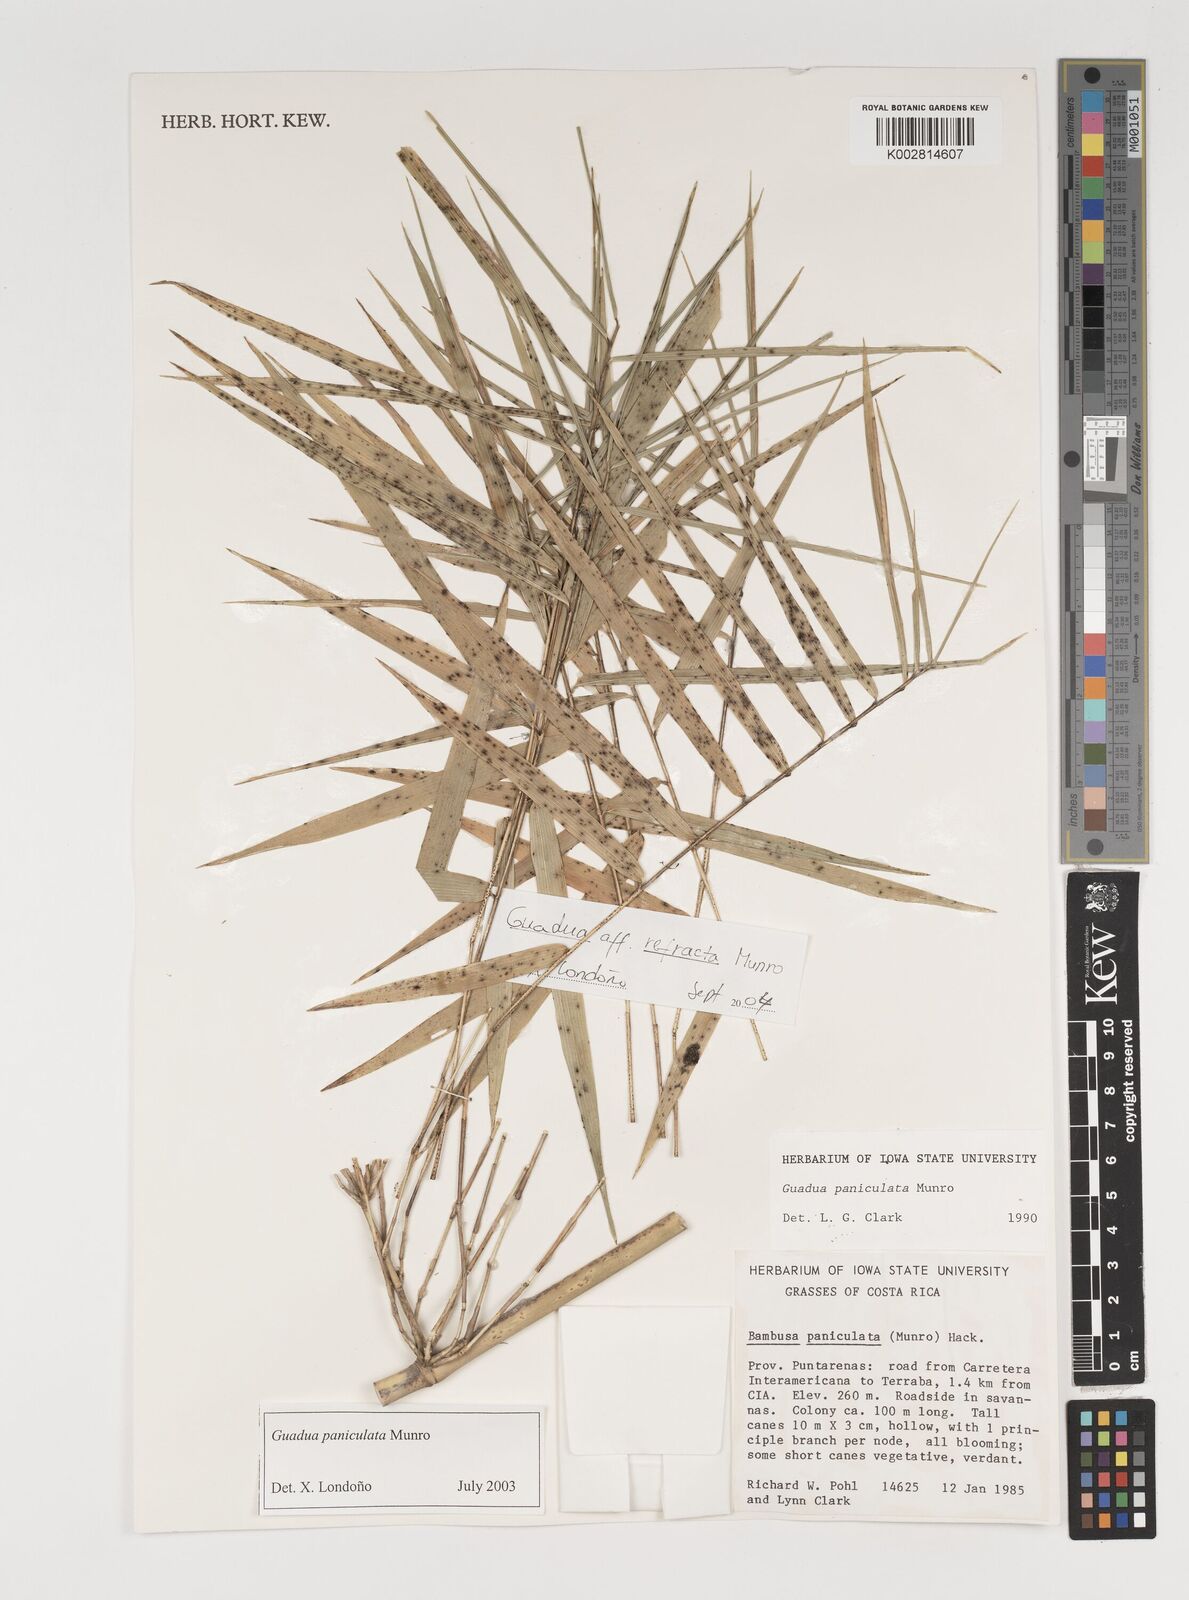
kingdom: Plantae
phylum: Tracheophyta
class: Liliopsida
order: Poales
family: Poaceae
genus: Guadua
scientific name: Guadua
